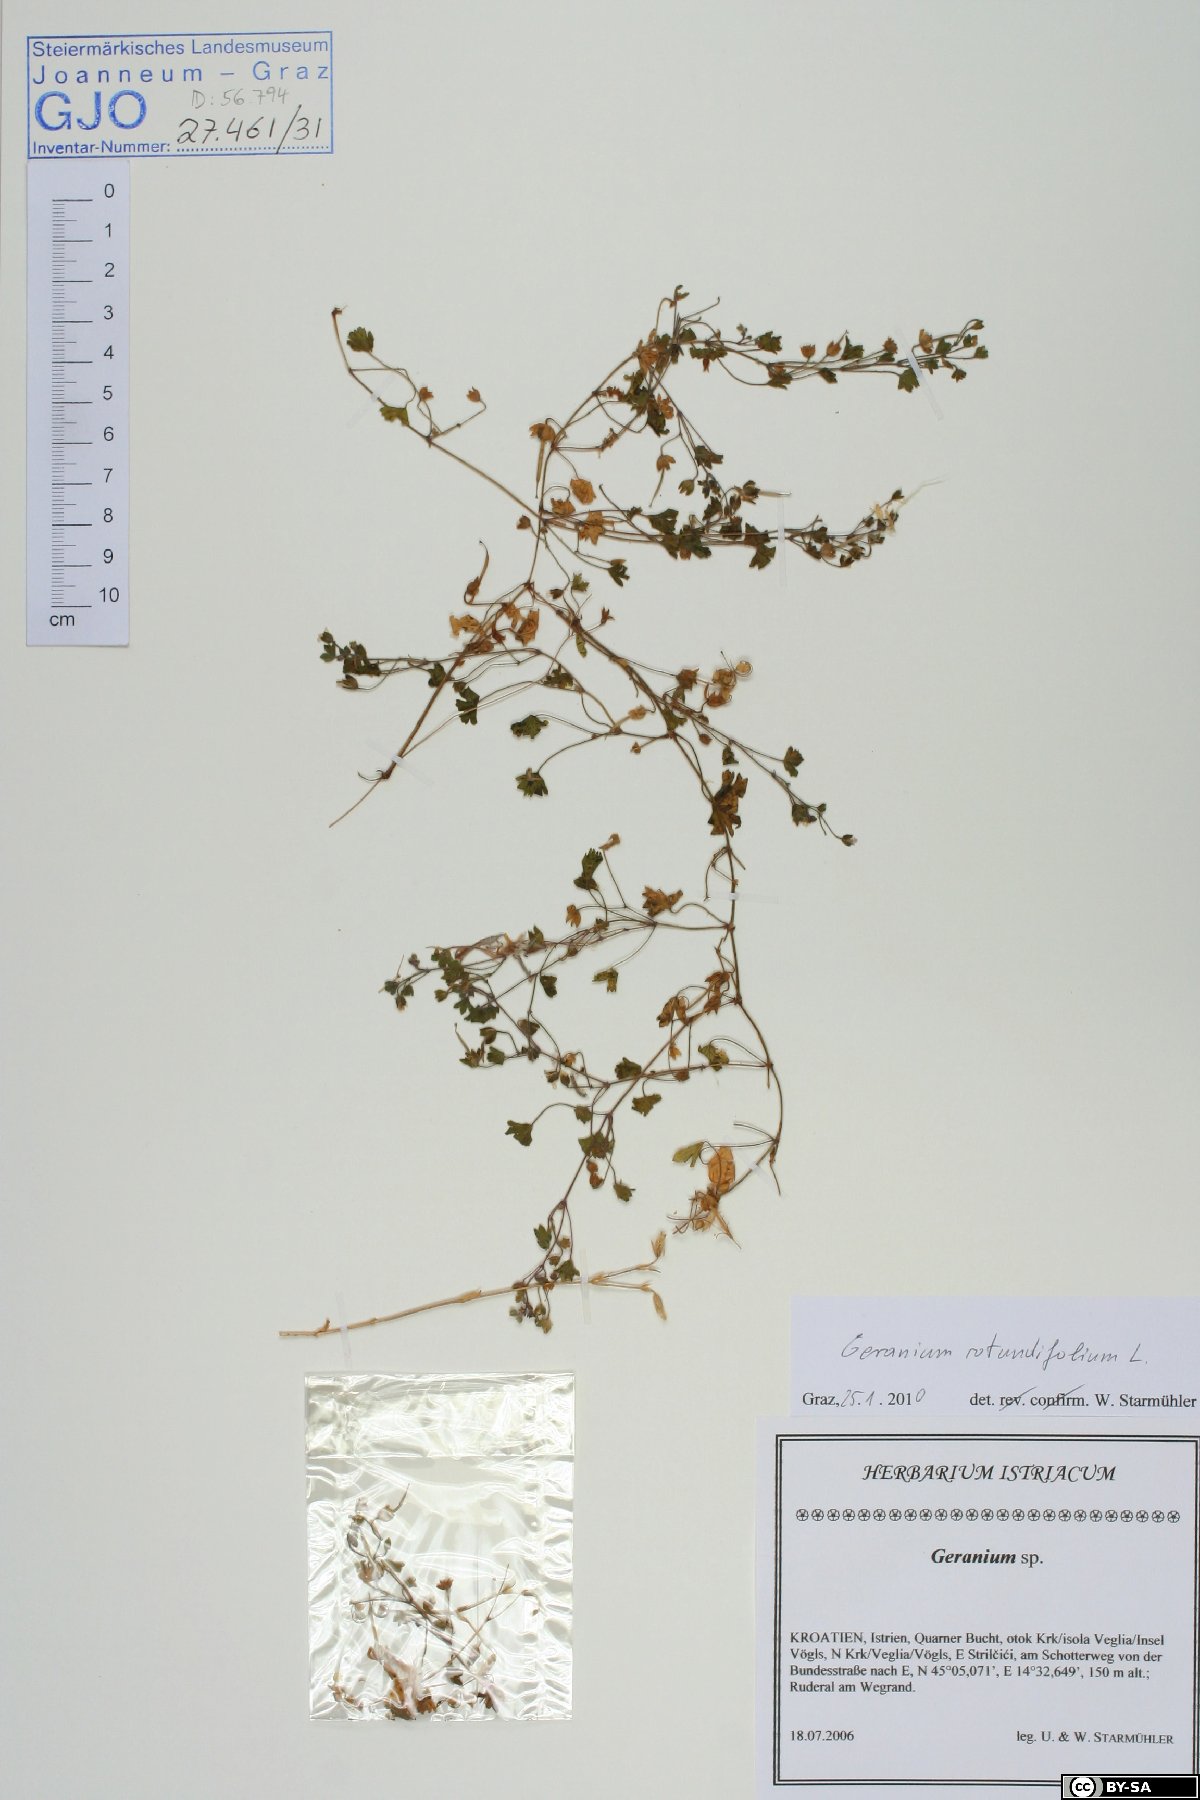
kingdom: Plantae
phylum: Tracheophyta
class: Magnoliopsida
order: Geraniales
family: Geraniaceae
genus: Geranium
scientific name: Geranium rotundifolium
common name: Round-leaved crane's-bill
